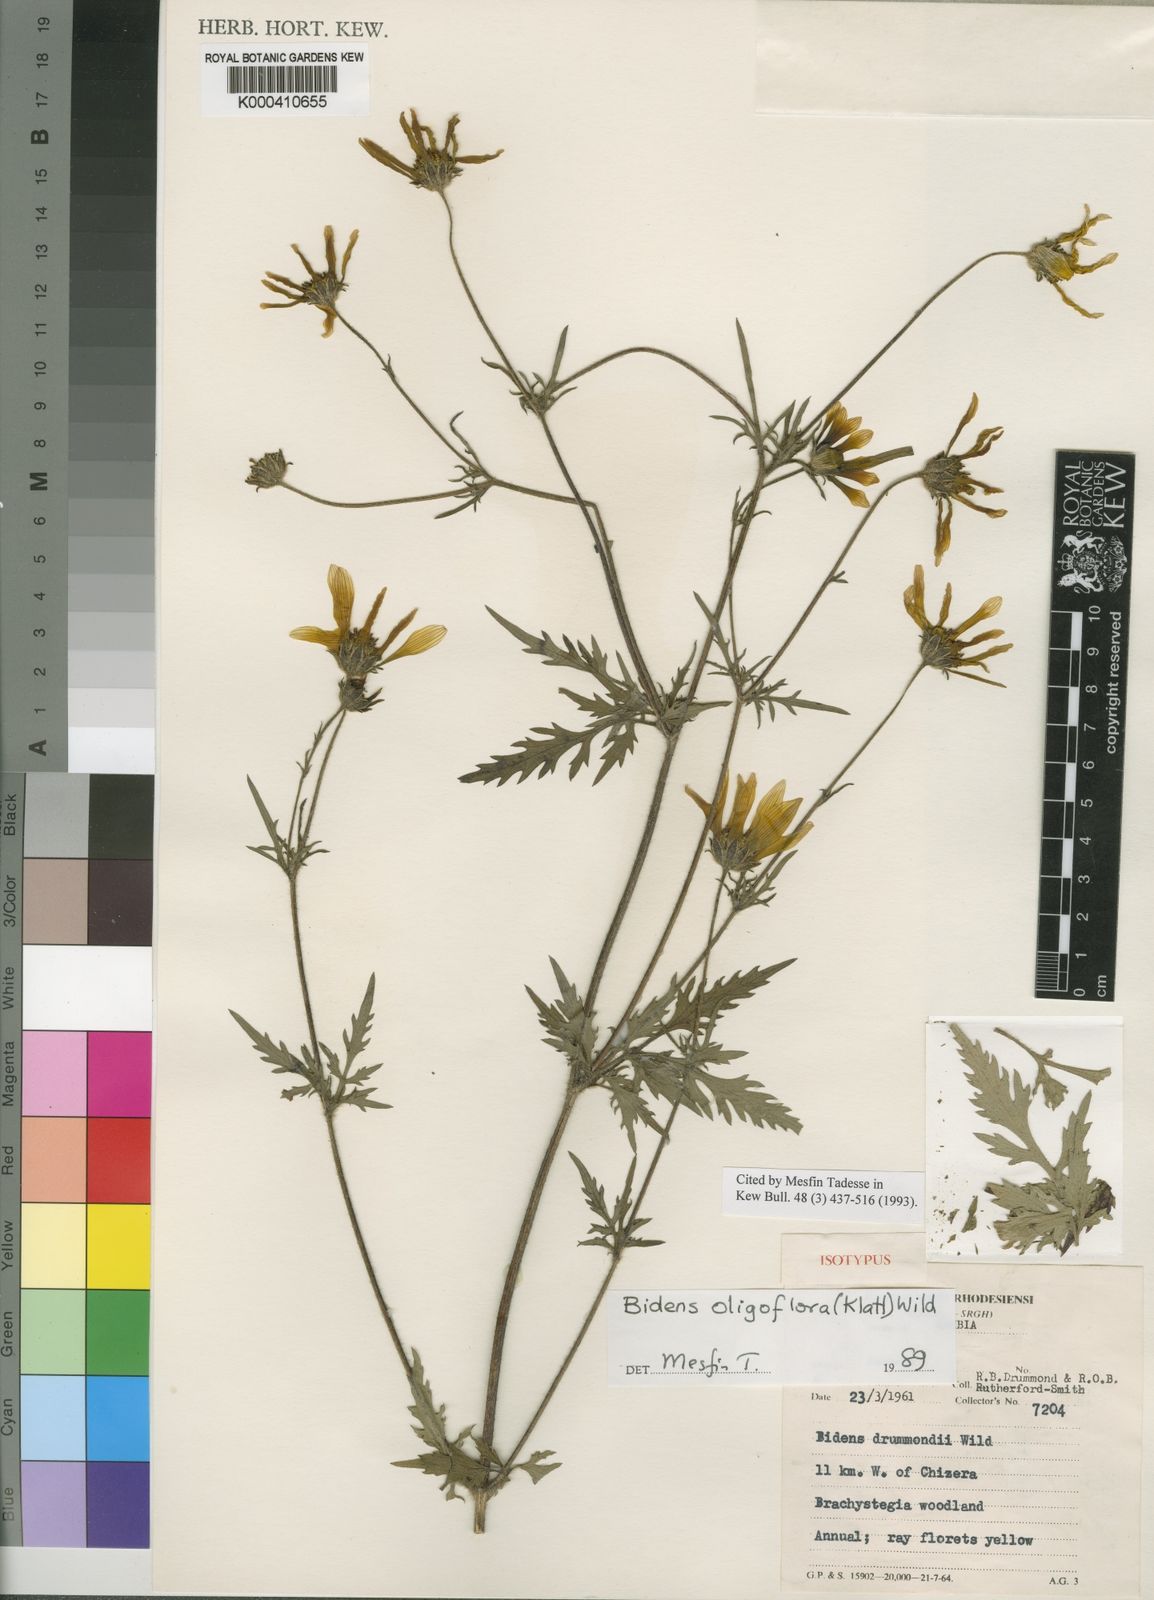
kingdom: Plantae
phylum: Tracheophyta
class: Magnoliopsida
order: Asterales
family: Asteraceae
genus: Bidens
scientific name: Bidens oligoflora
